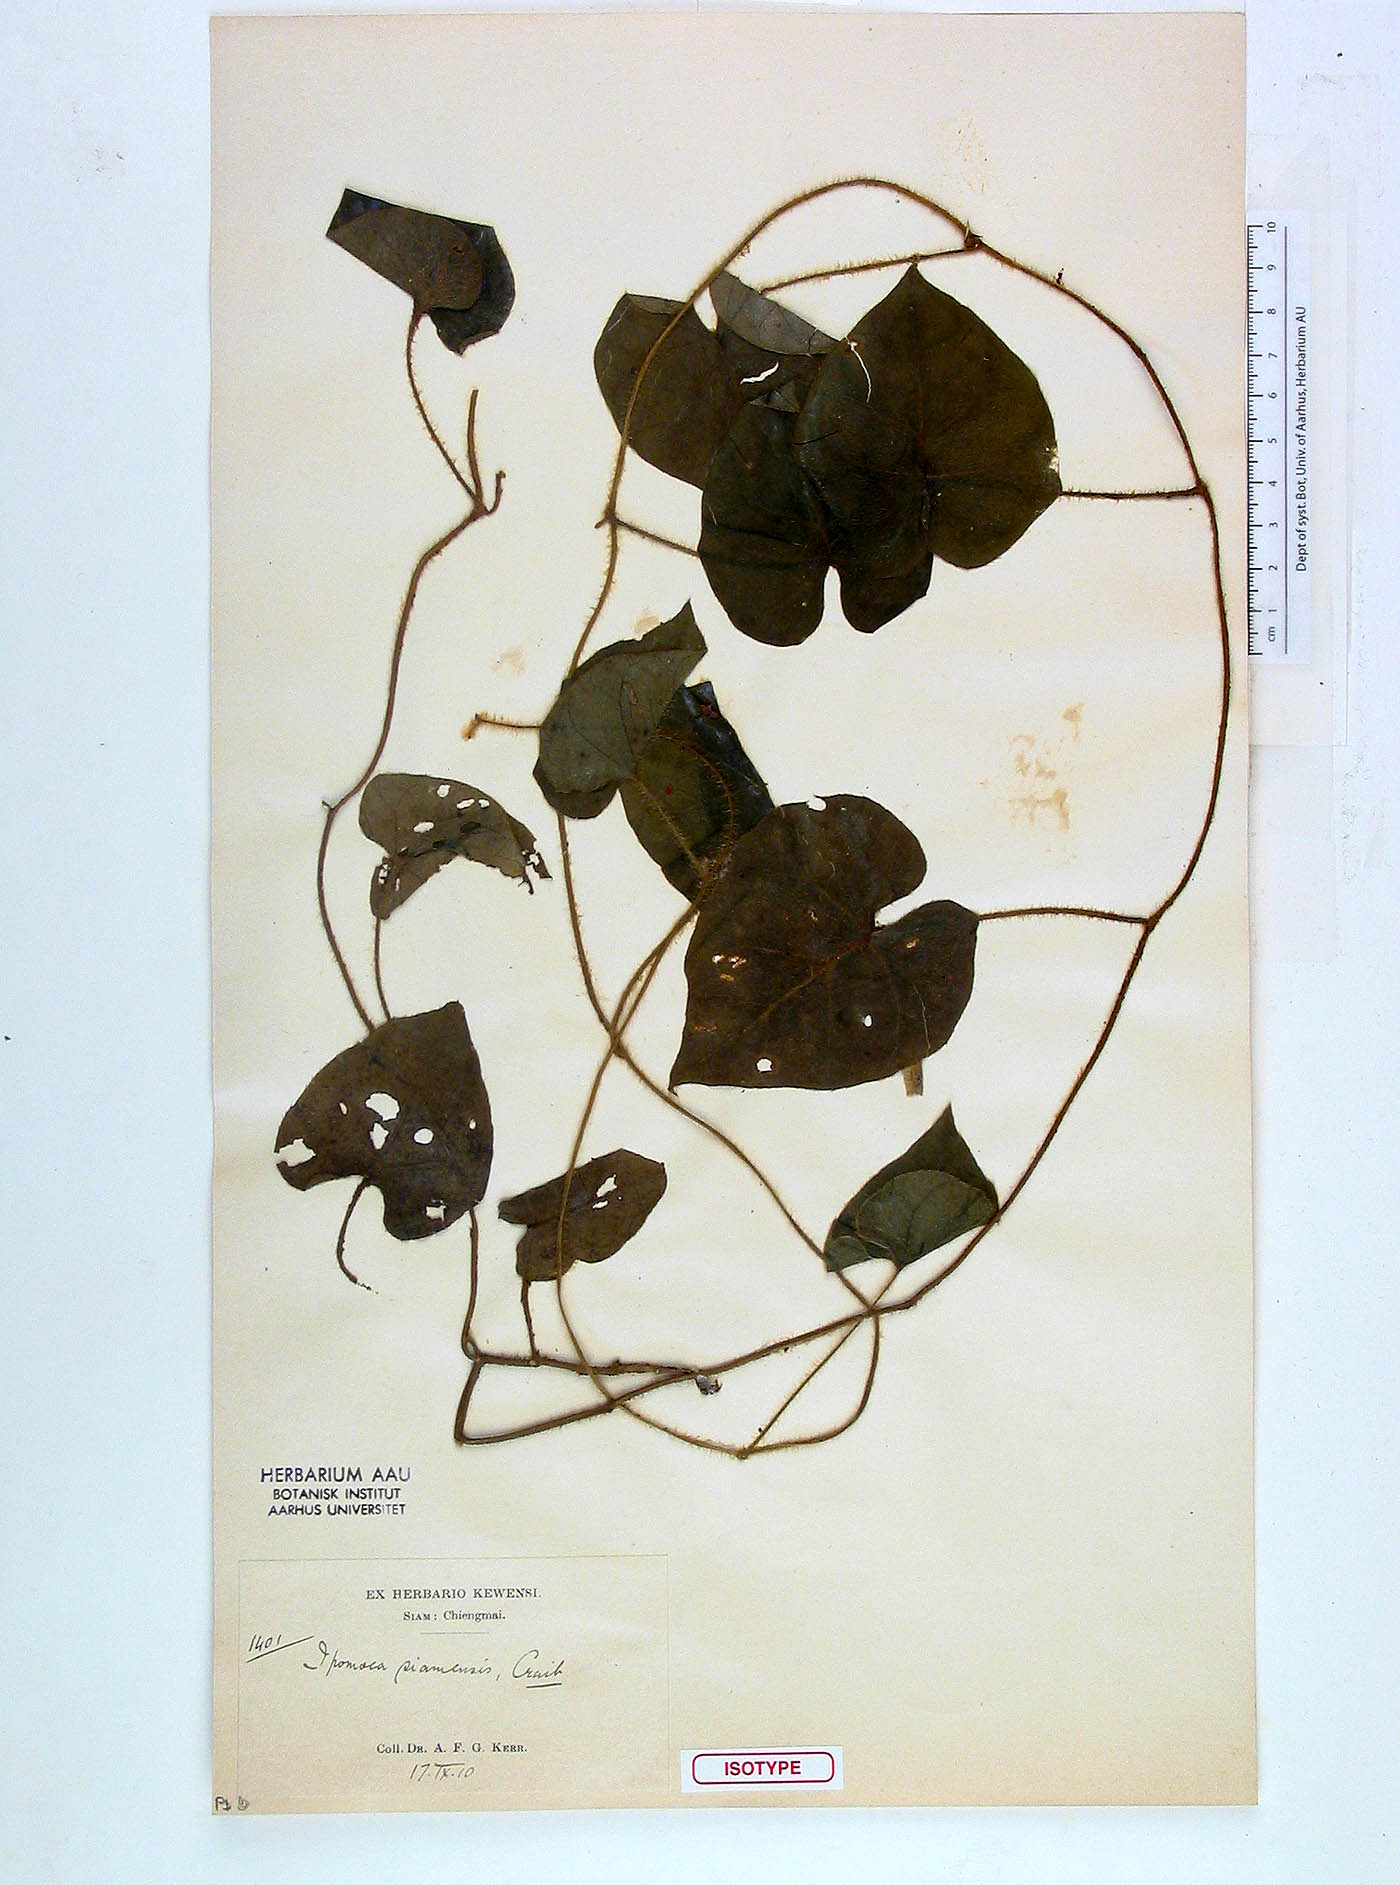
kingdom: Plantae
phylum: Tracheophyta
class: Magnoliopsida
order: Solanales
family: Convolvulaceae
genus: Argyreia
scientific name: Argyreia siamensis
